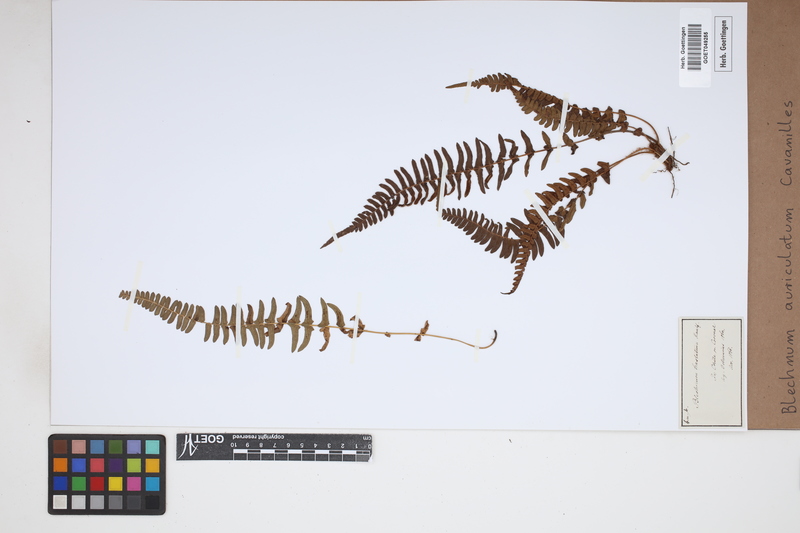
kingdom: Plantae
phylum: Tracheophyta
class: Polypodiopsida
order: Polypodiales
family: Blechnaceae
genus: Blechnum
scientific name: Blechnum auriculatum
